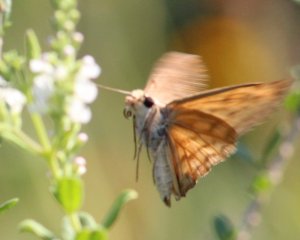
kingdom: Animalia
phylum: Arthropoda
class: Insecta
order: Lepidoptera
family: Hesperiidae
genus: Timochares
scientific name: Timochares ruptifasciata
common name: Brown-banded Skipper
